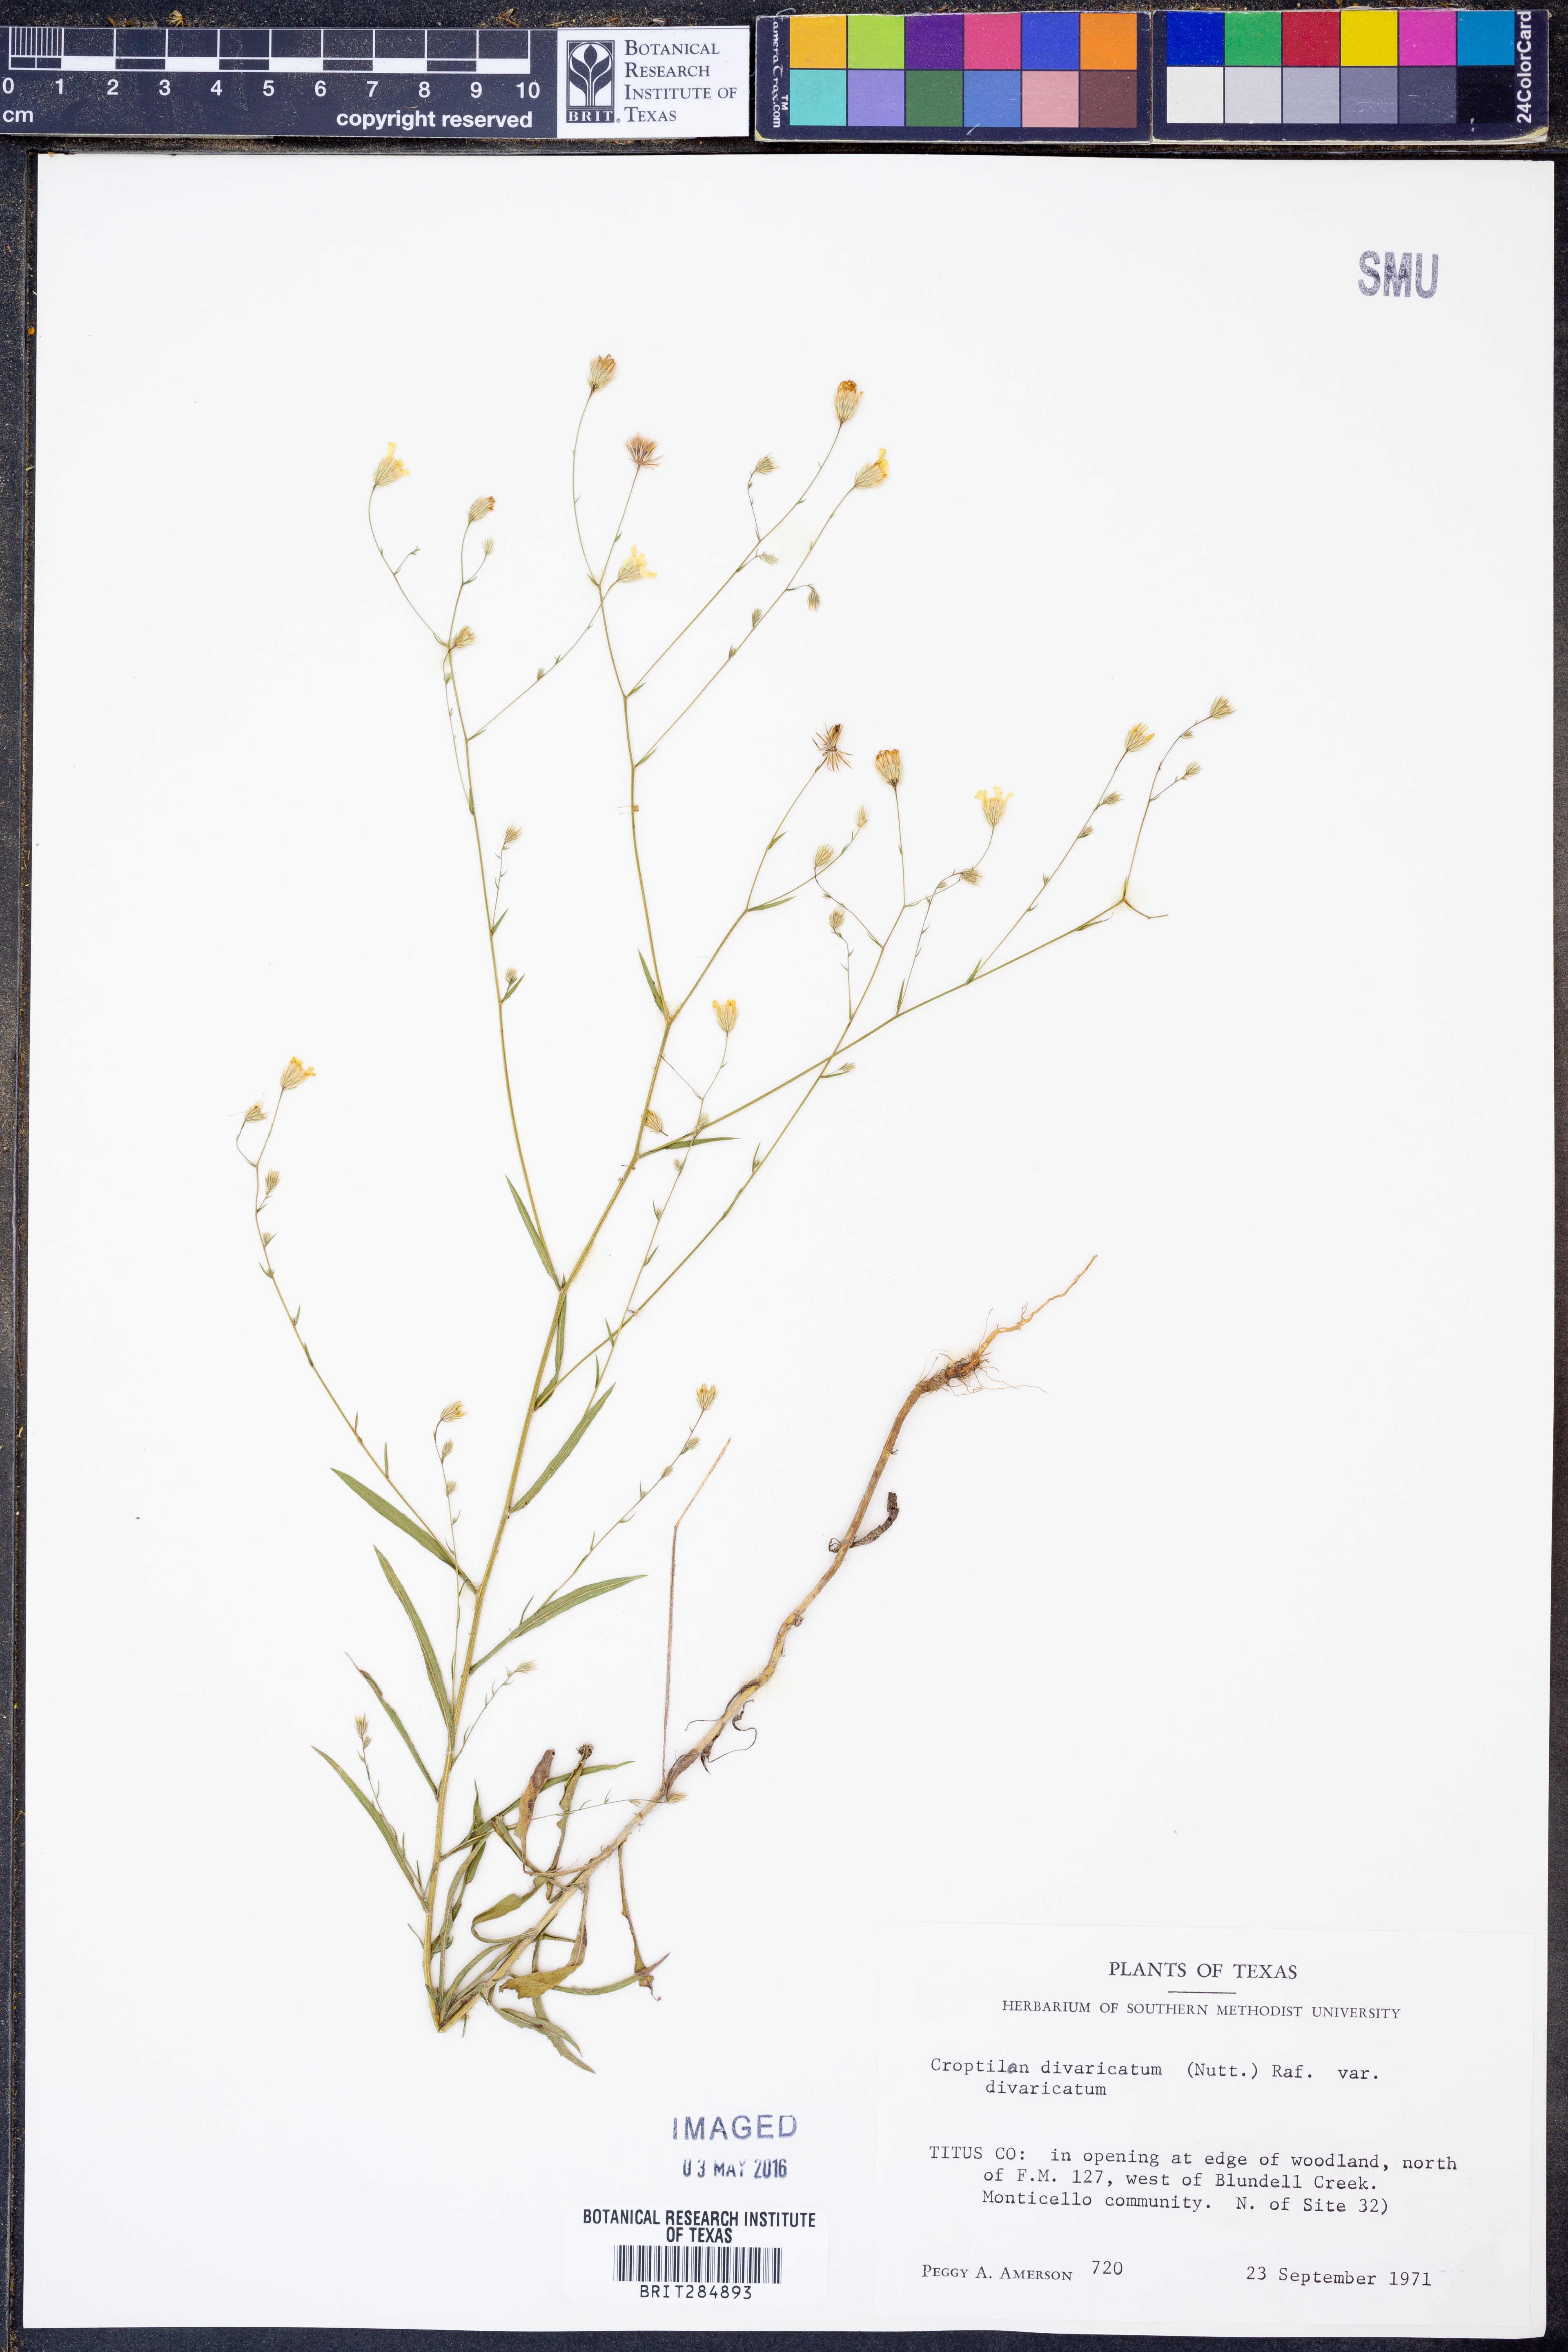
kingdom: Plantae
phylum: Tracheophyta
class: Magnoliopsida
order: Asterales
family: Asteraceae
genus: Croptilon
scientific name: Croptilon divaricatum
